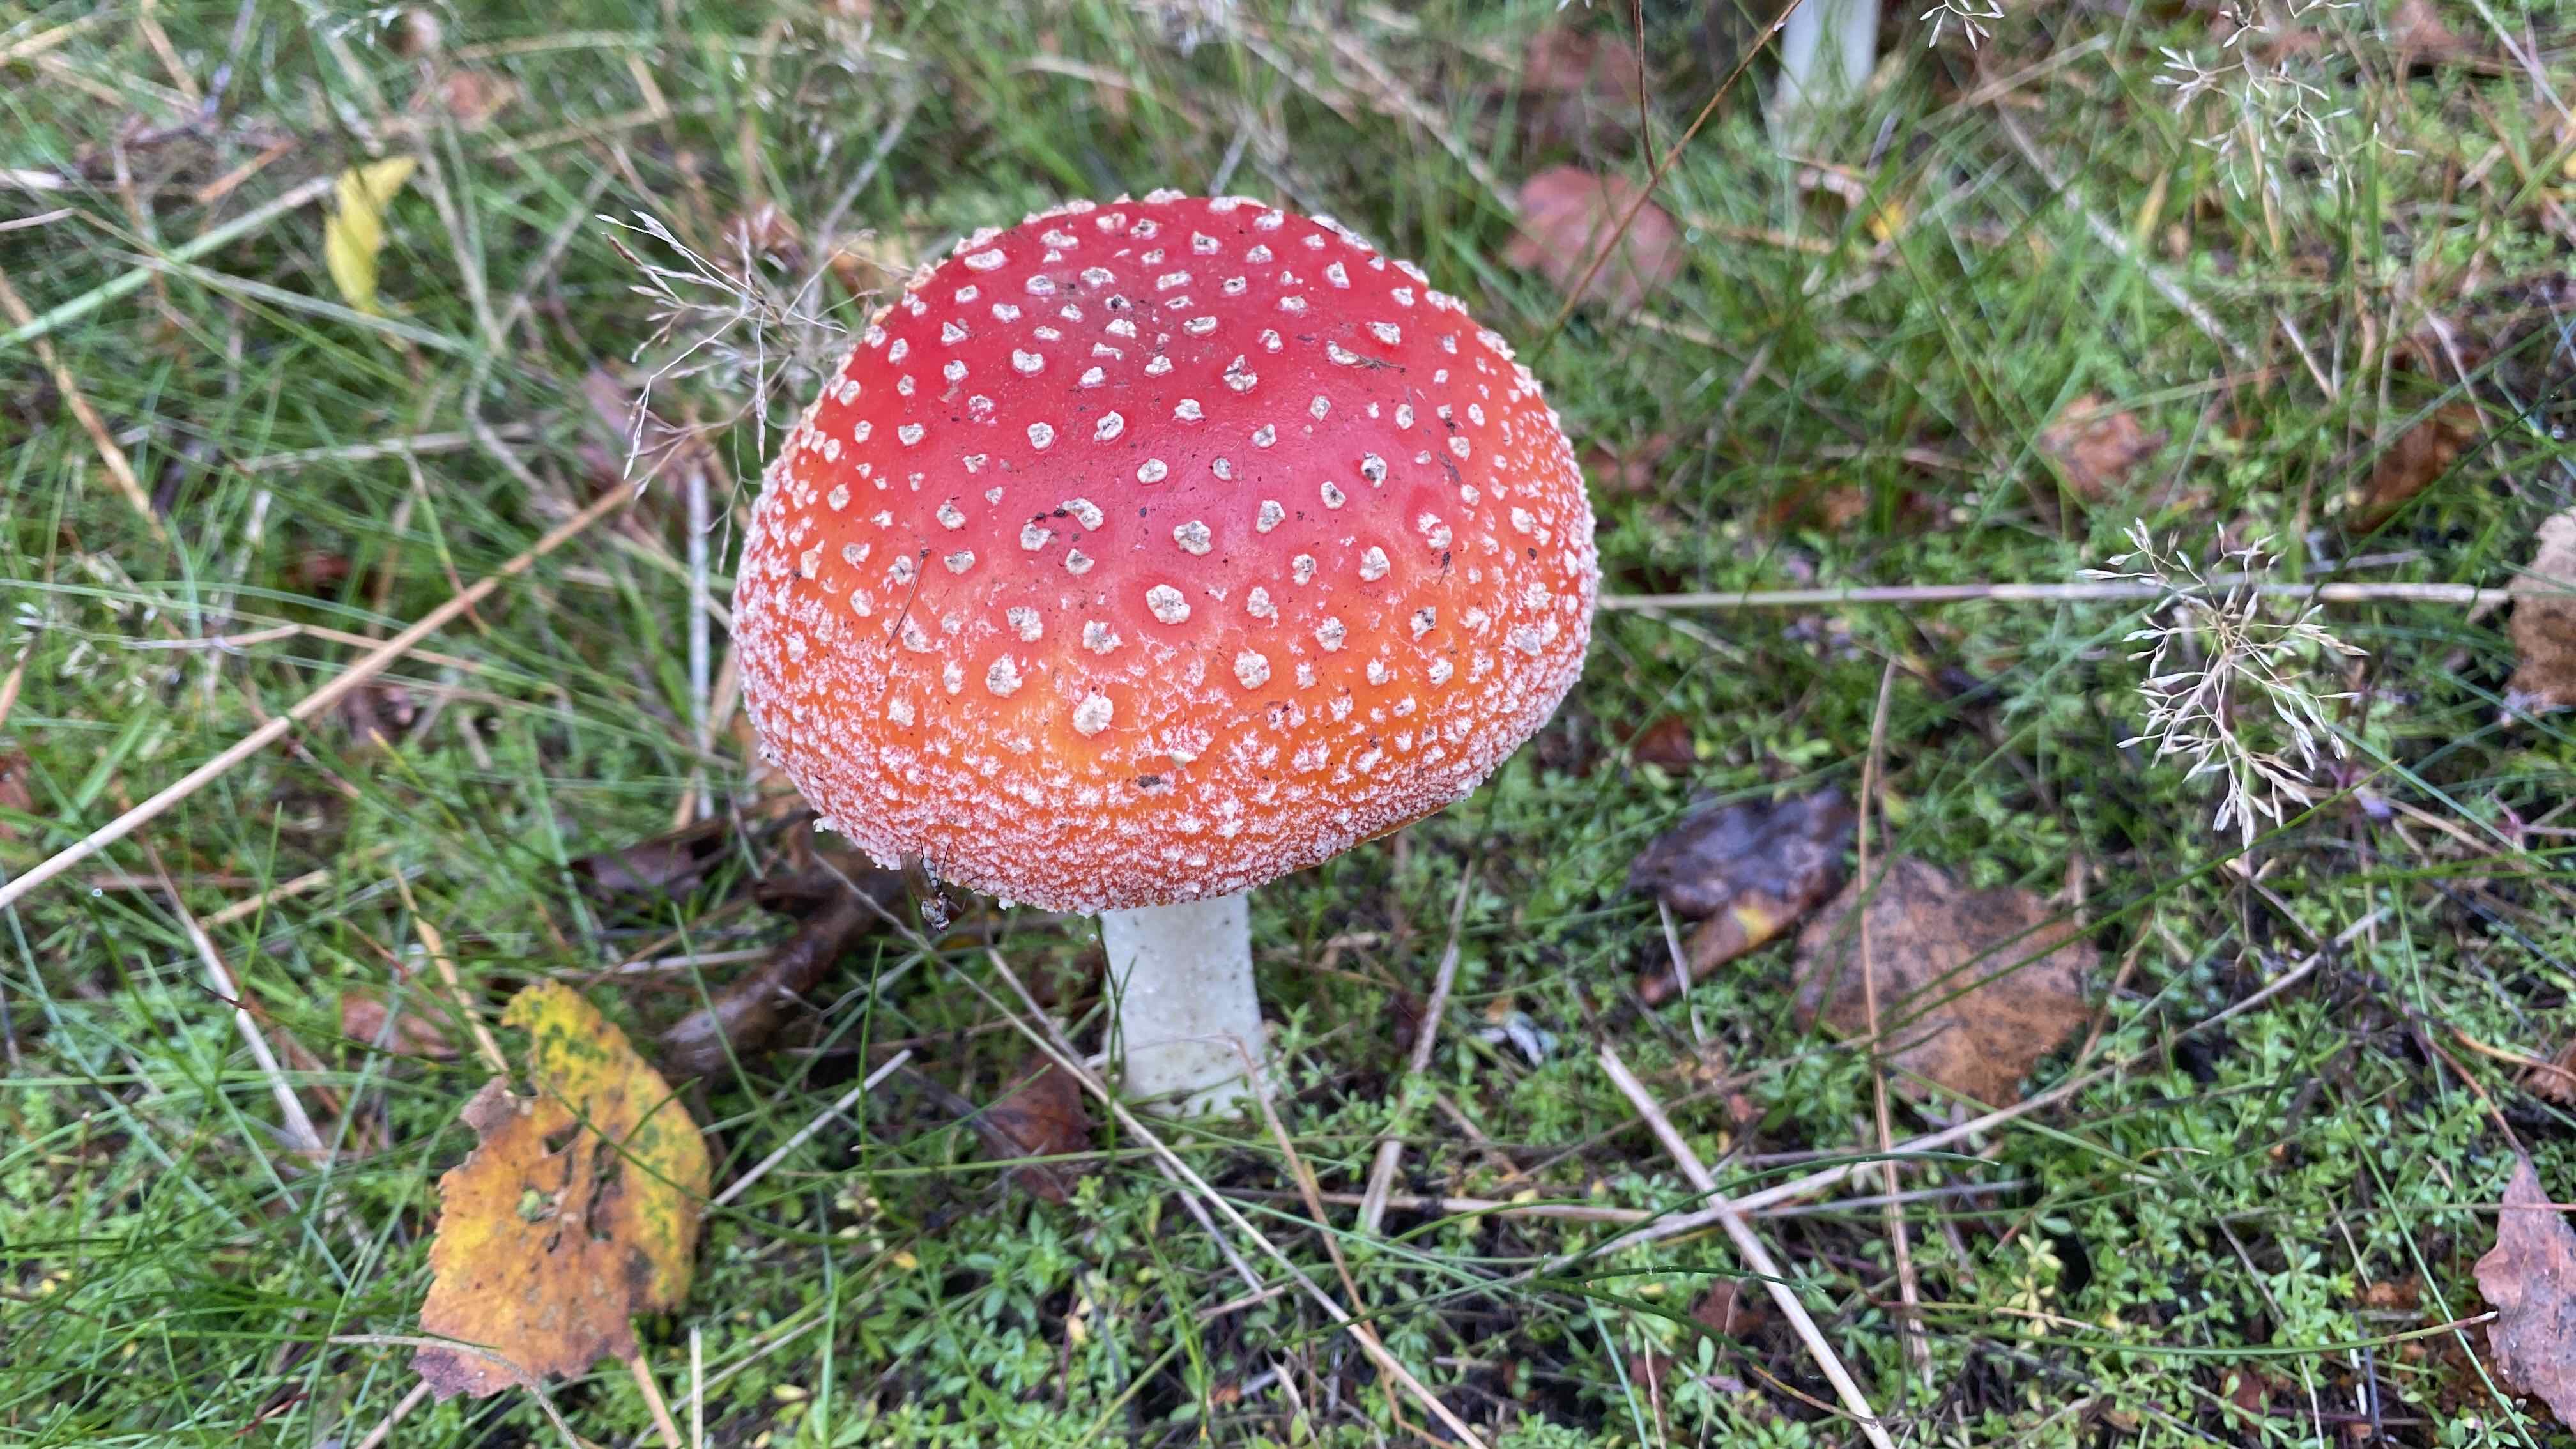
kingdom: Fungi
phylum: Basidiomycota
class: Agaricomycetes
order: Agaricales
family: Amanitaceae
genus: Amanita
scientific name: Amanita muscaria
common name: rød fluesvamp
